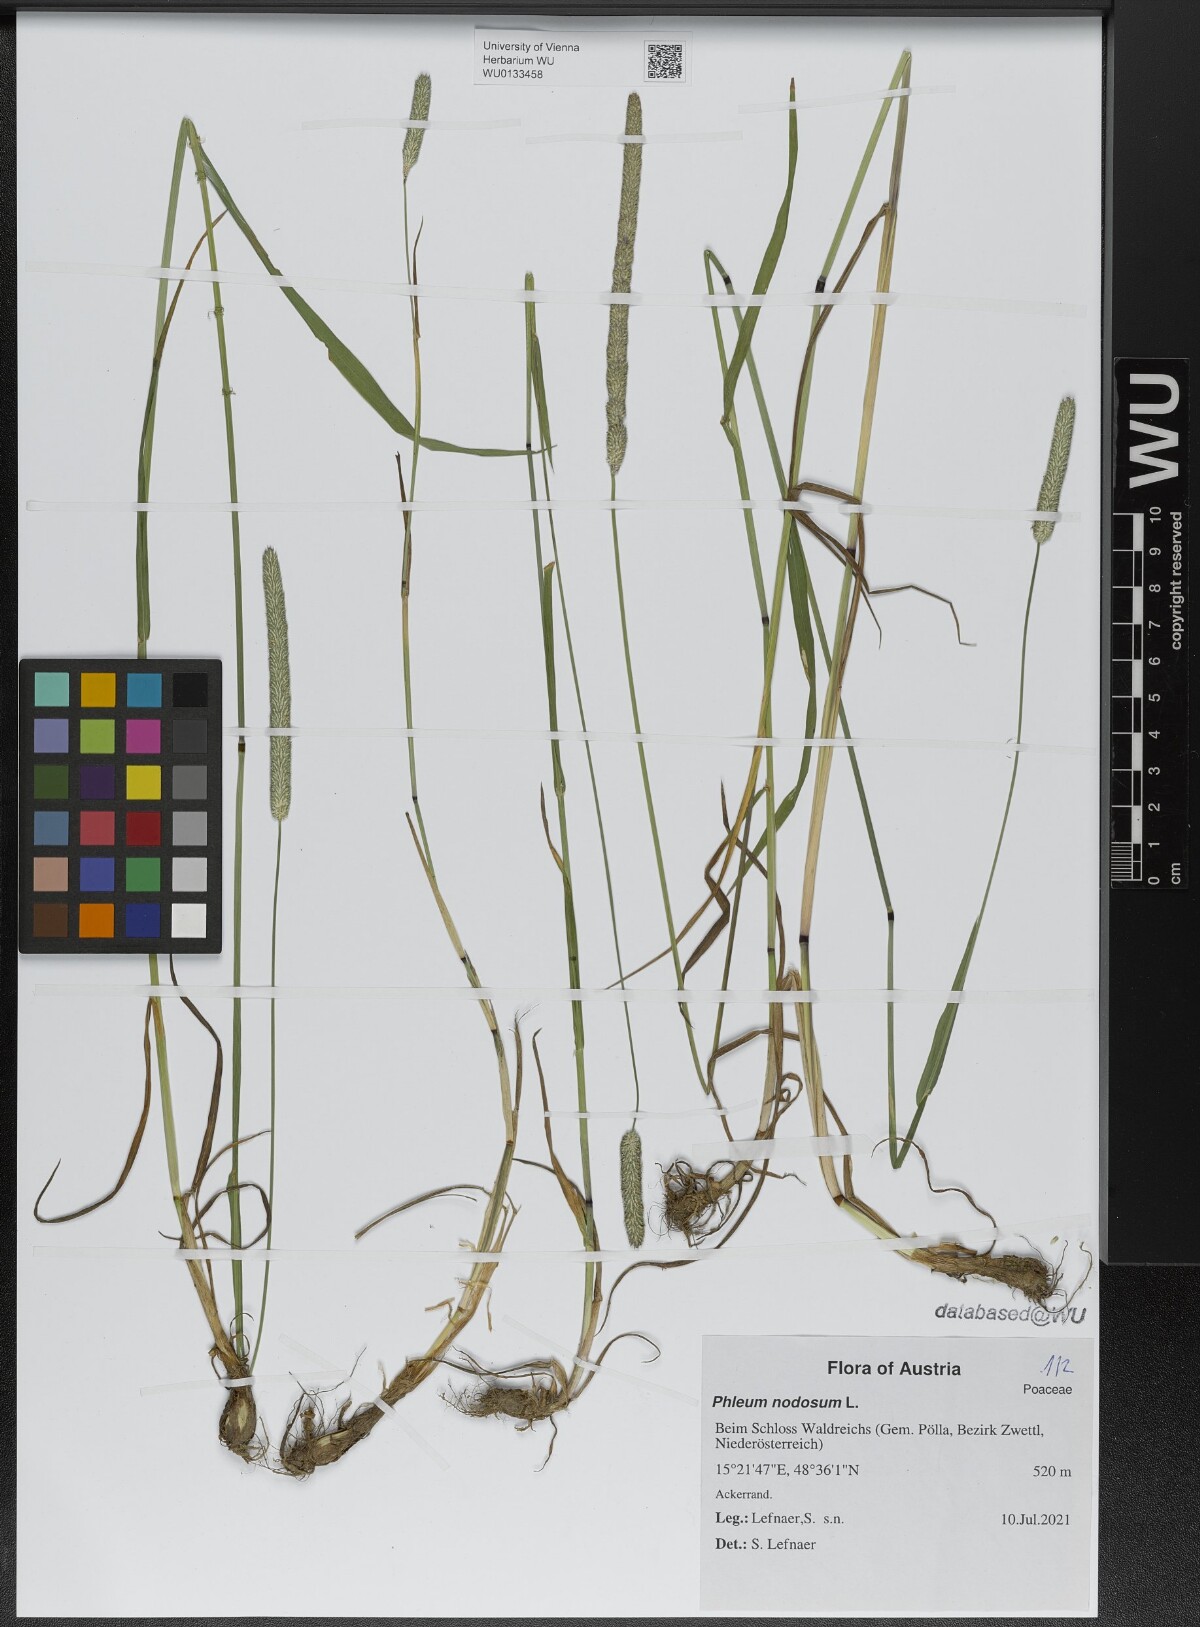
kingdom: Plantae
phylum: Tracheophyta
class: Liliopsida
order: Poales
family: Poaceae
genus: Phleum
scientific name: Phleum pratense
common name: Timothy grass
